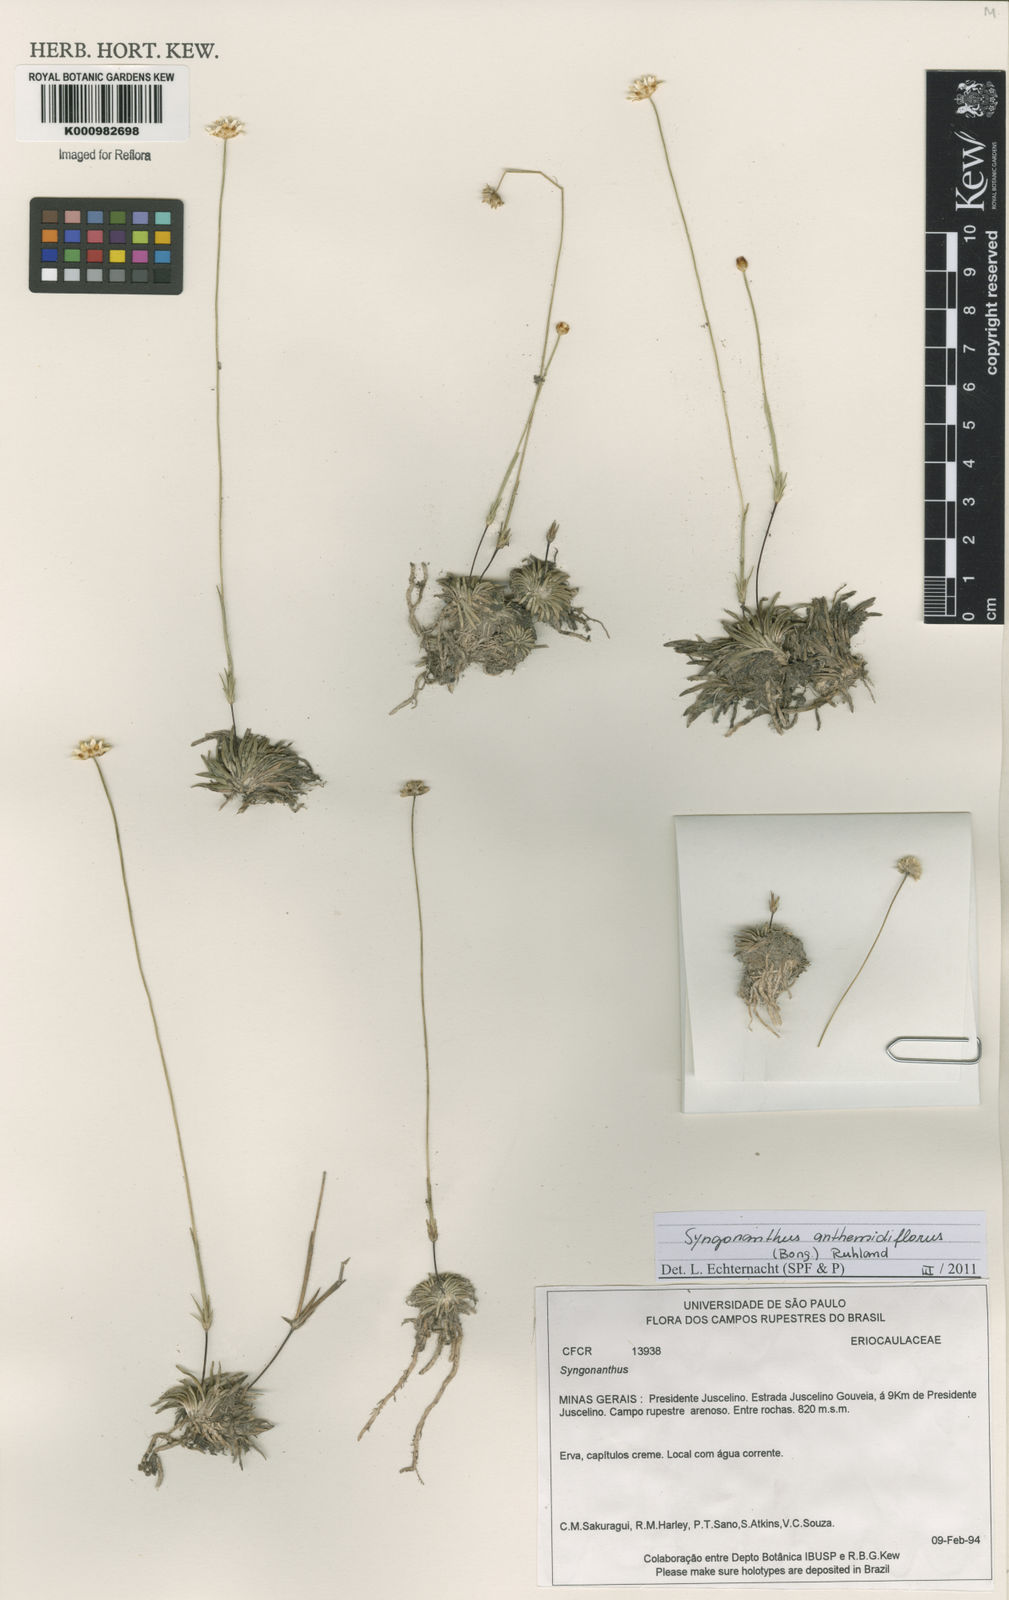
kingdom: Plantae
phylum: Tracheophyta
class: Liliopsida
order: Poales
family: Eriocaulaceae
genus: Syngonanthus
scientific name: Syngonanthus anthemidiflorus
